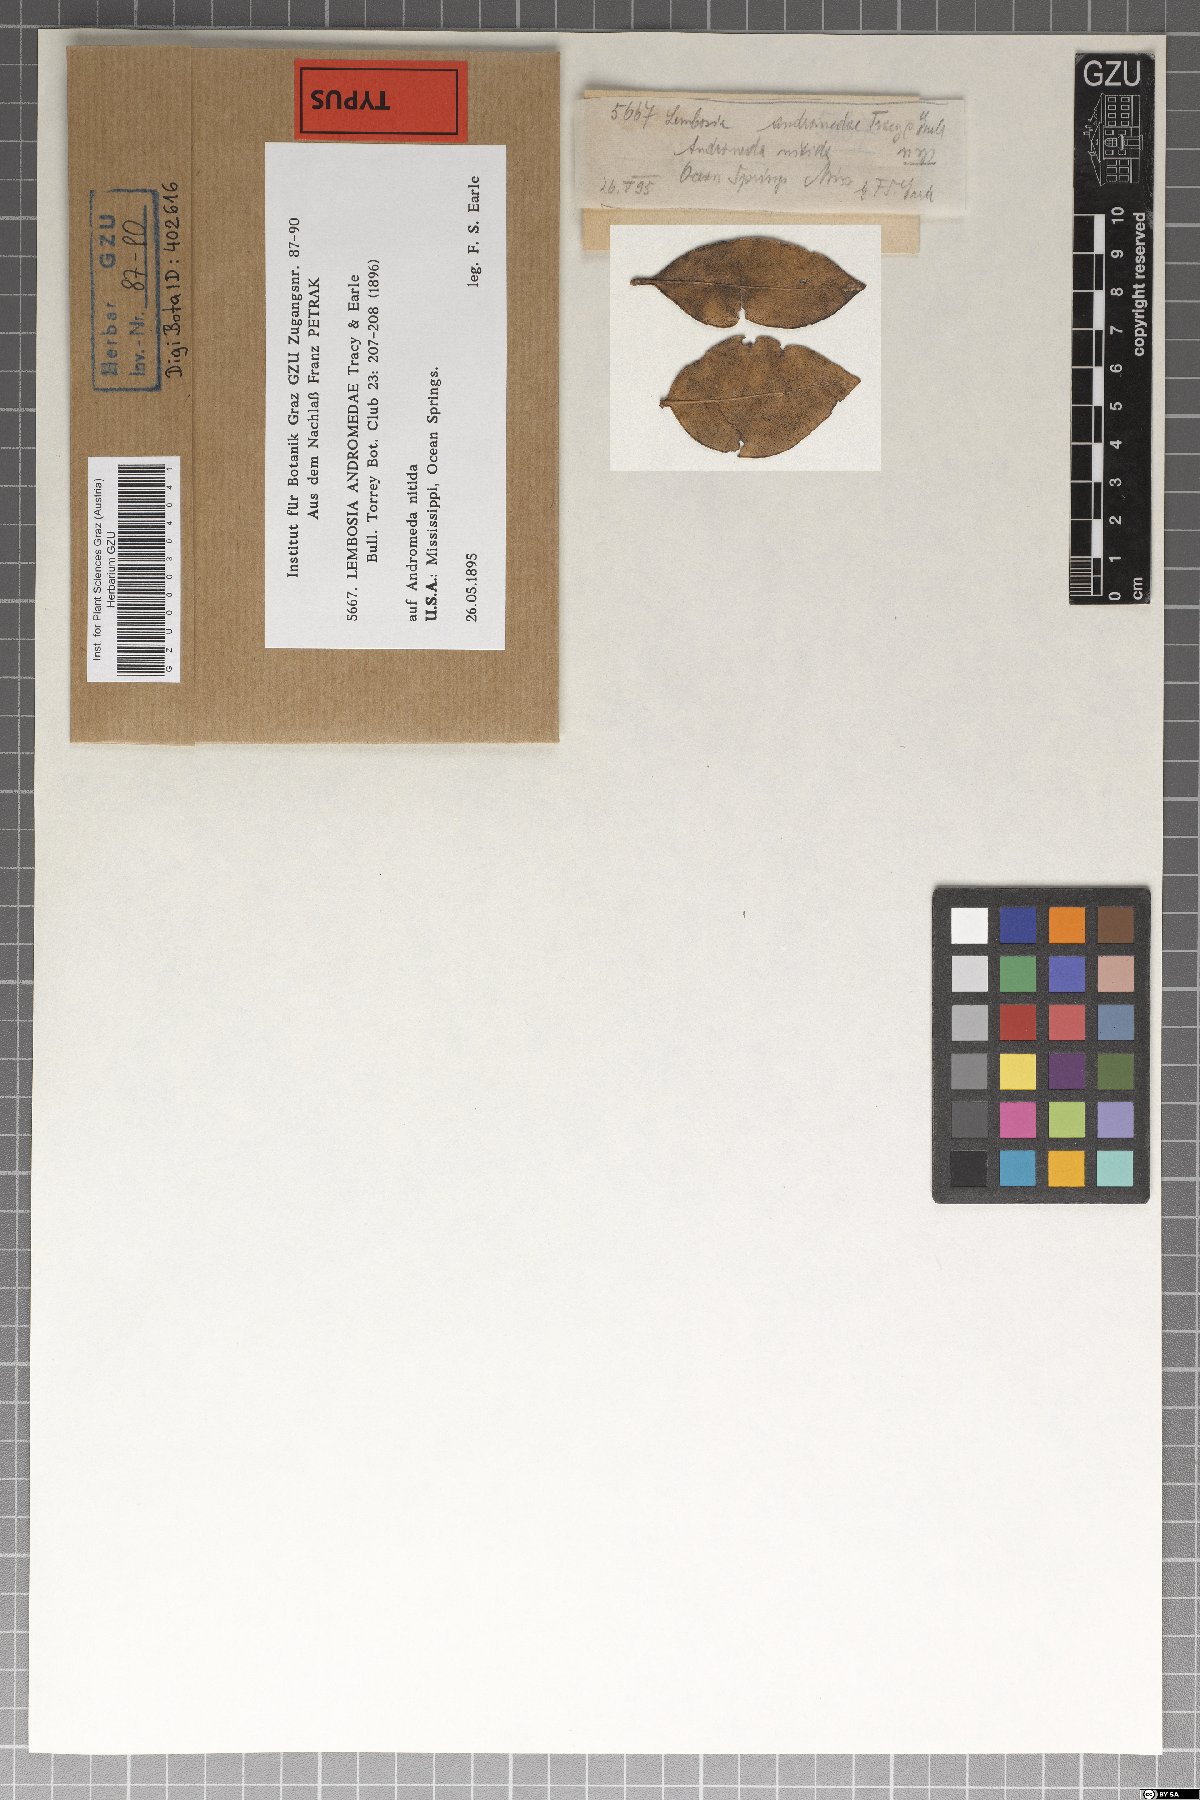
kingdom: Fungi
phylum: Ascomycota
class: Dothideomycetes
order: Asterinales
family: Asterinaceae
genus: Lembosiopsis
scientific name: Lembosiopsis andromedae
